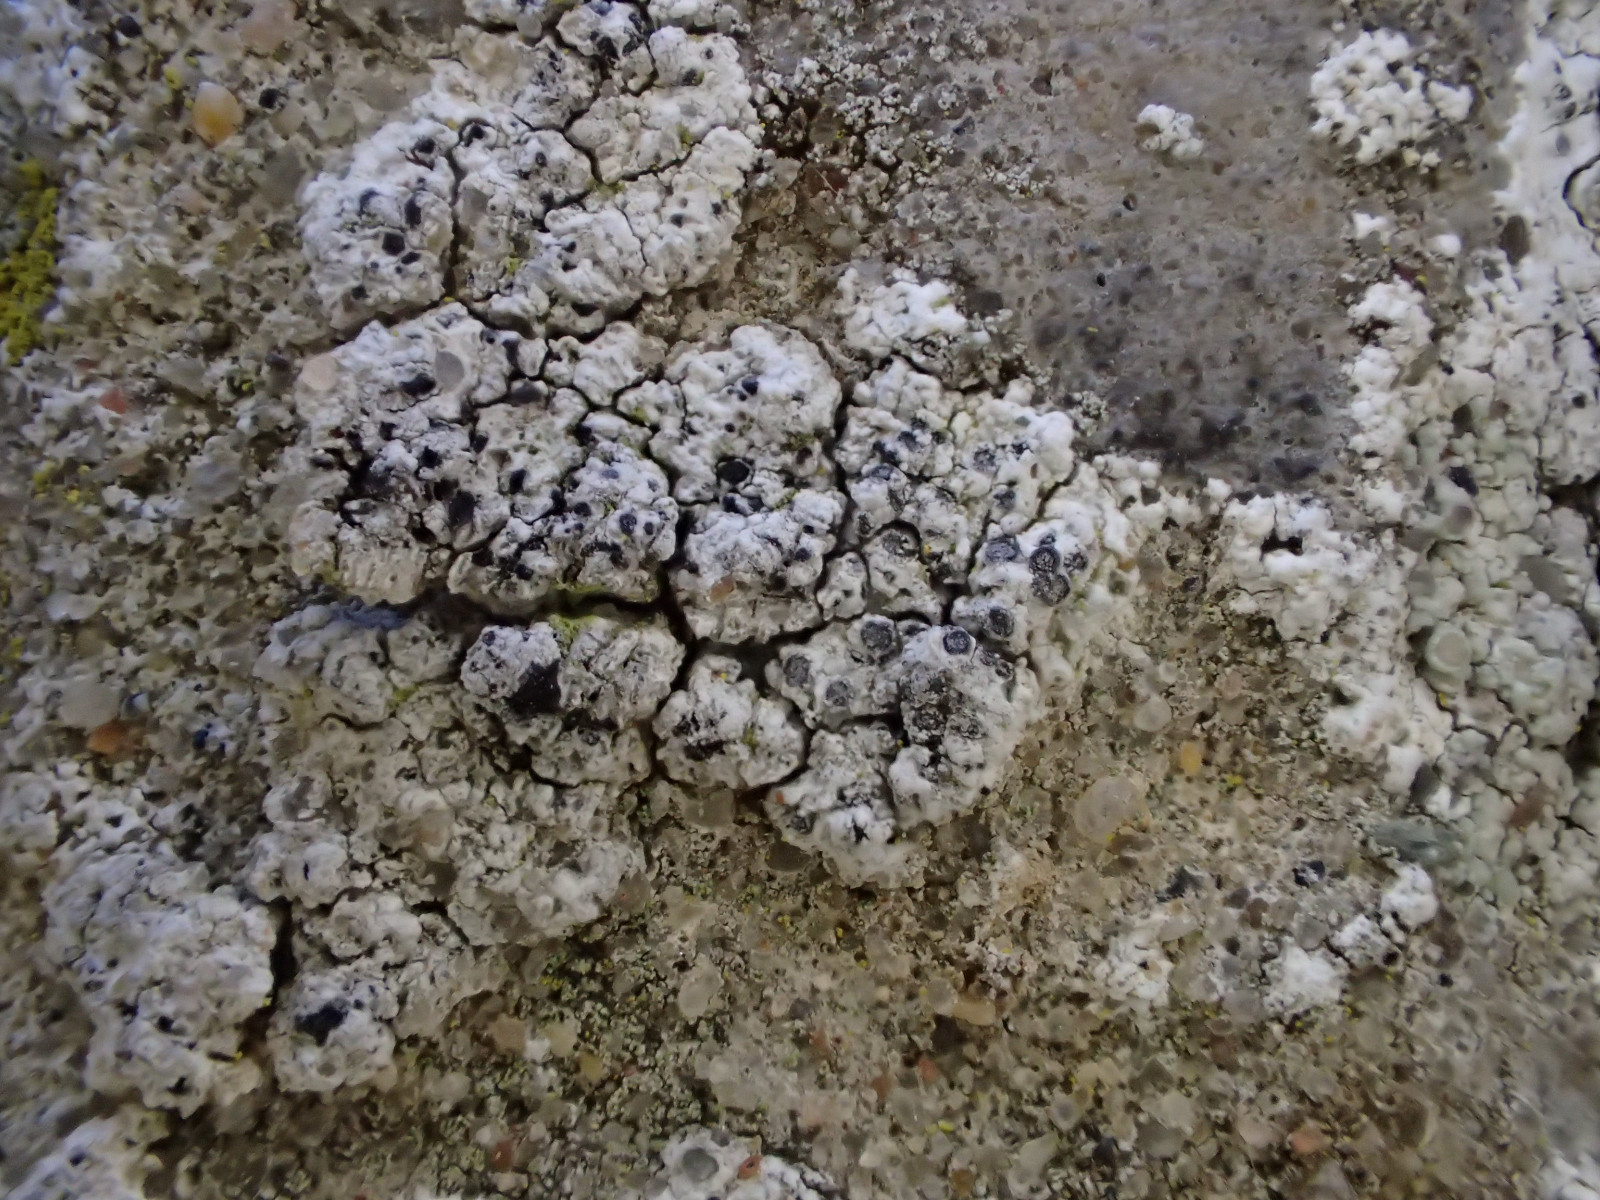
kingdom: Fungi
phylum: Ascomycota
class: Lecanoromycetes
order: Caliciales
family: Caliciaceae
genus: Diplotomma
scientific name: Diplotomma alboatrum
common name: sorthvid sortskivelav
